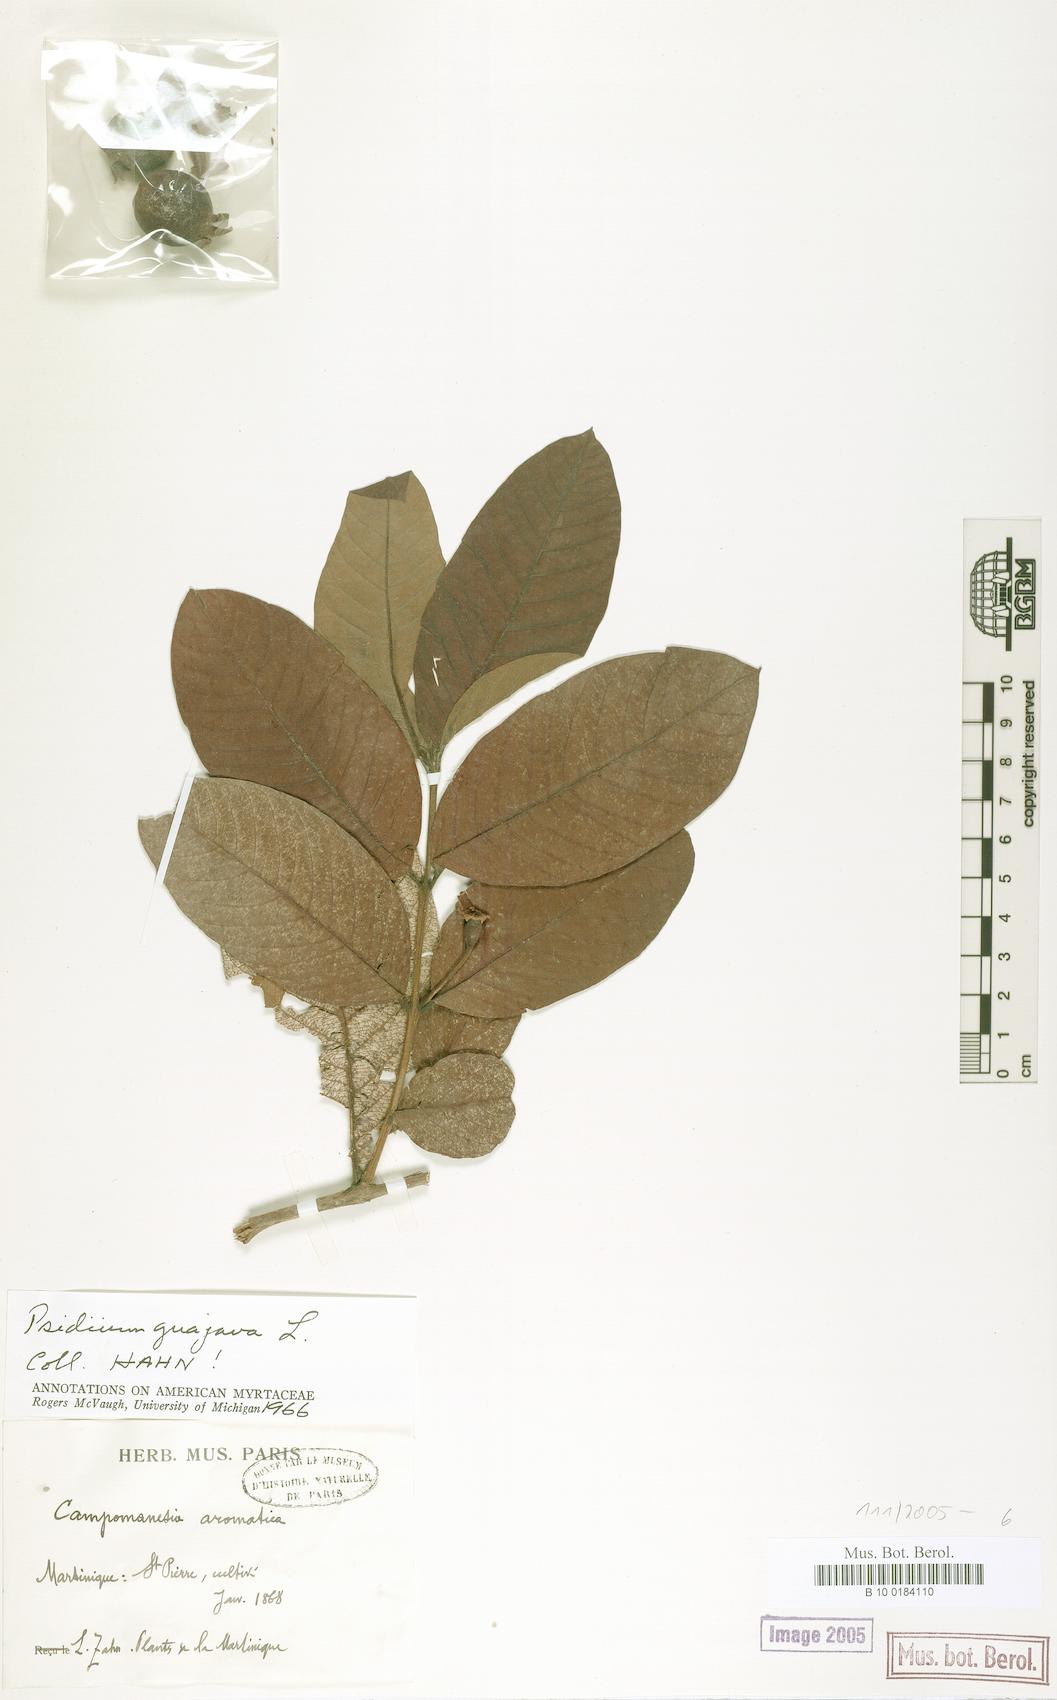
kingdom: Plantae
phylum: Tracheophyta
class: Magnoliopsida
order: Myrtales
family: Myrtaceae
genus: Psidium
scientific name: Psidium guajava
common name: Guava
